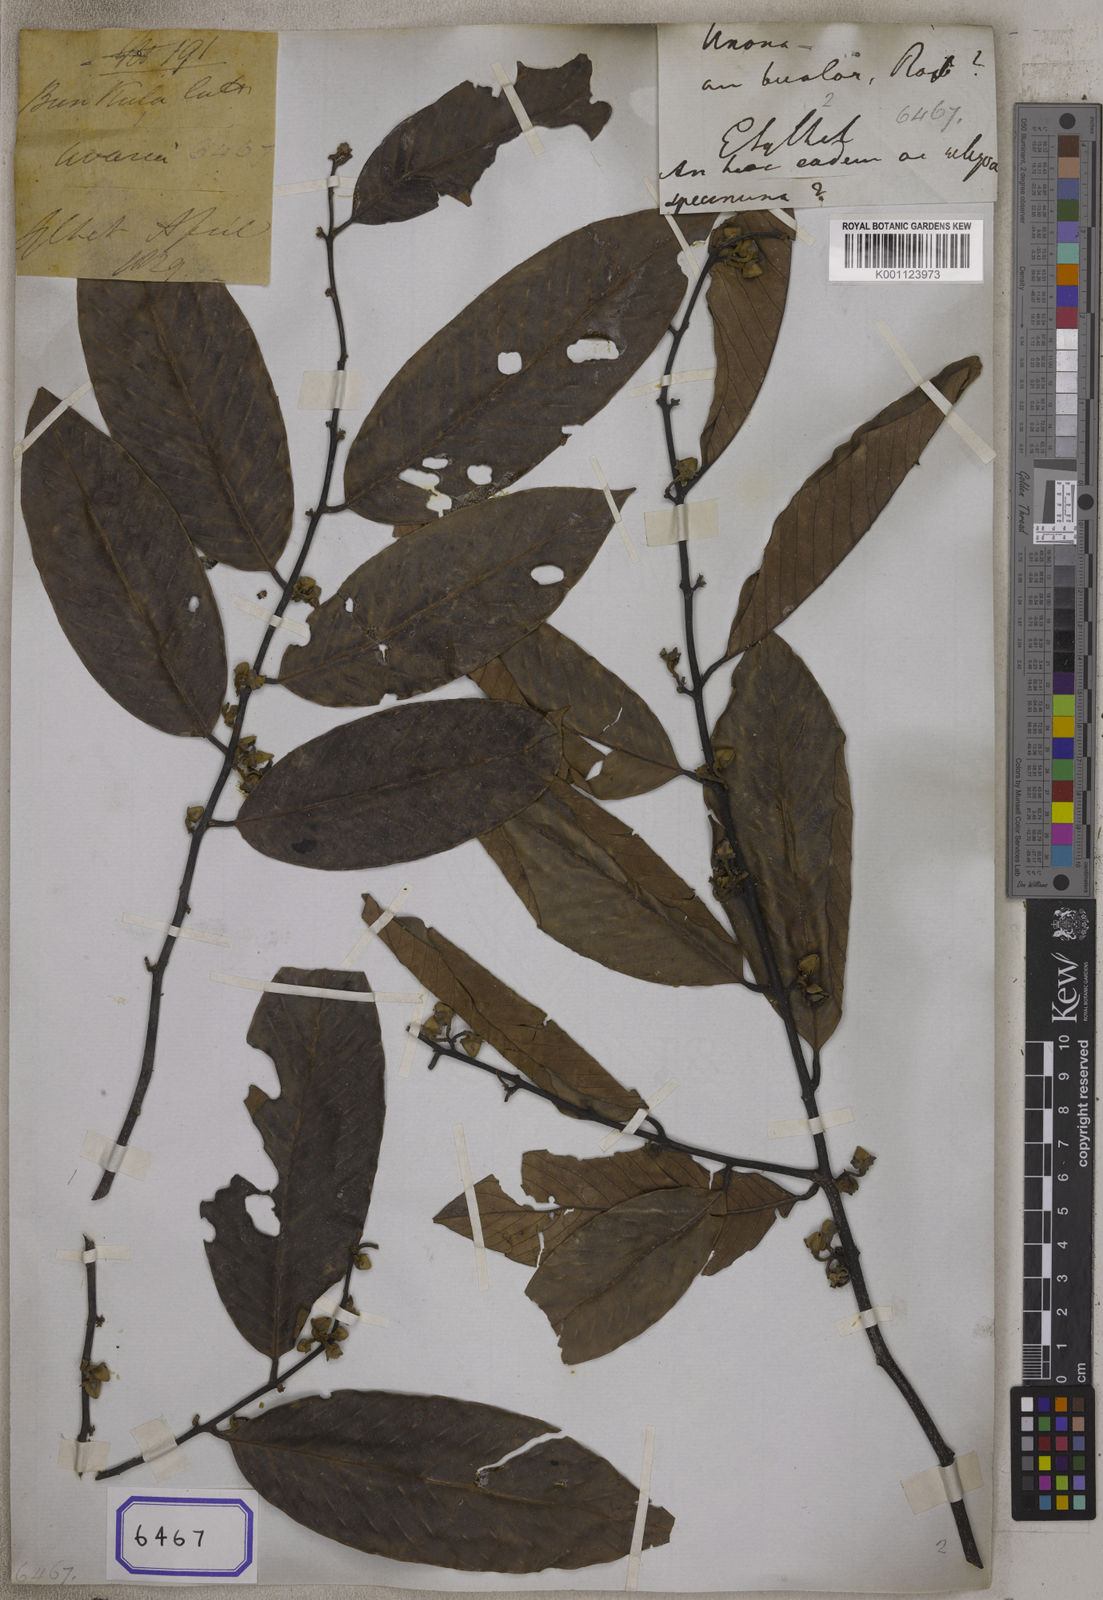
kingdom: Plantae
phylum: Tracheophyta
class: Magnoliopsida
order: Magnoliales
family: Annonaceae
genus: Fissistigma
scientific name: Fissistigma polyanthum
